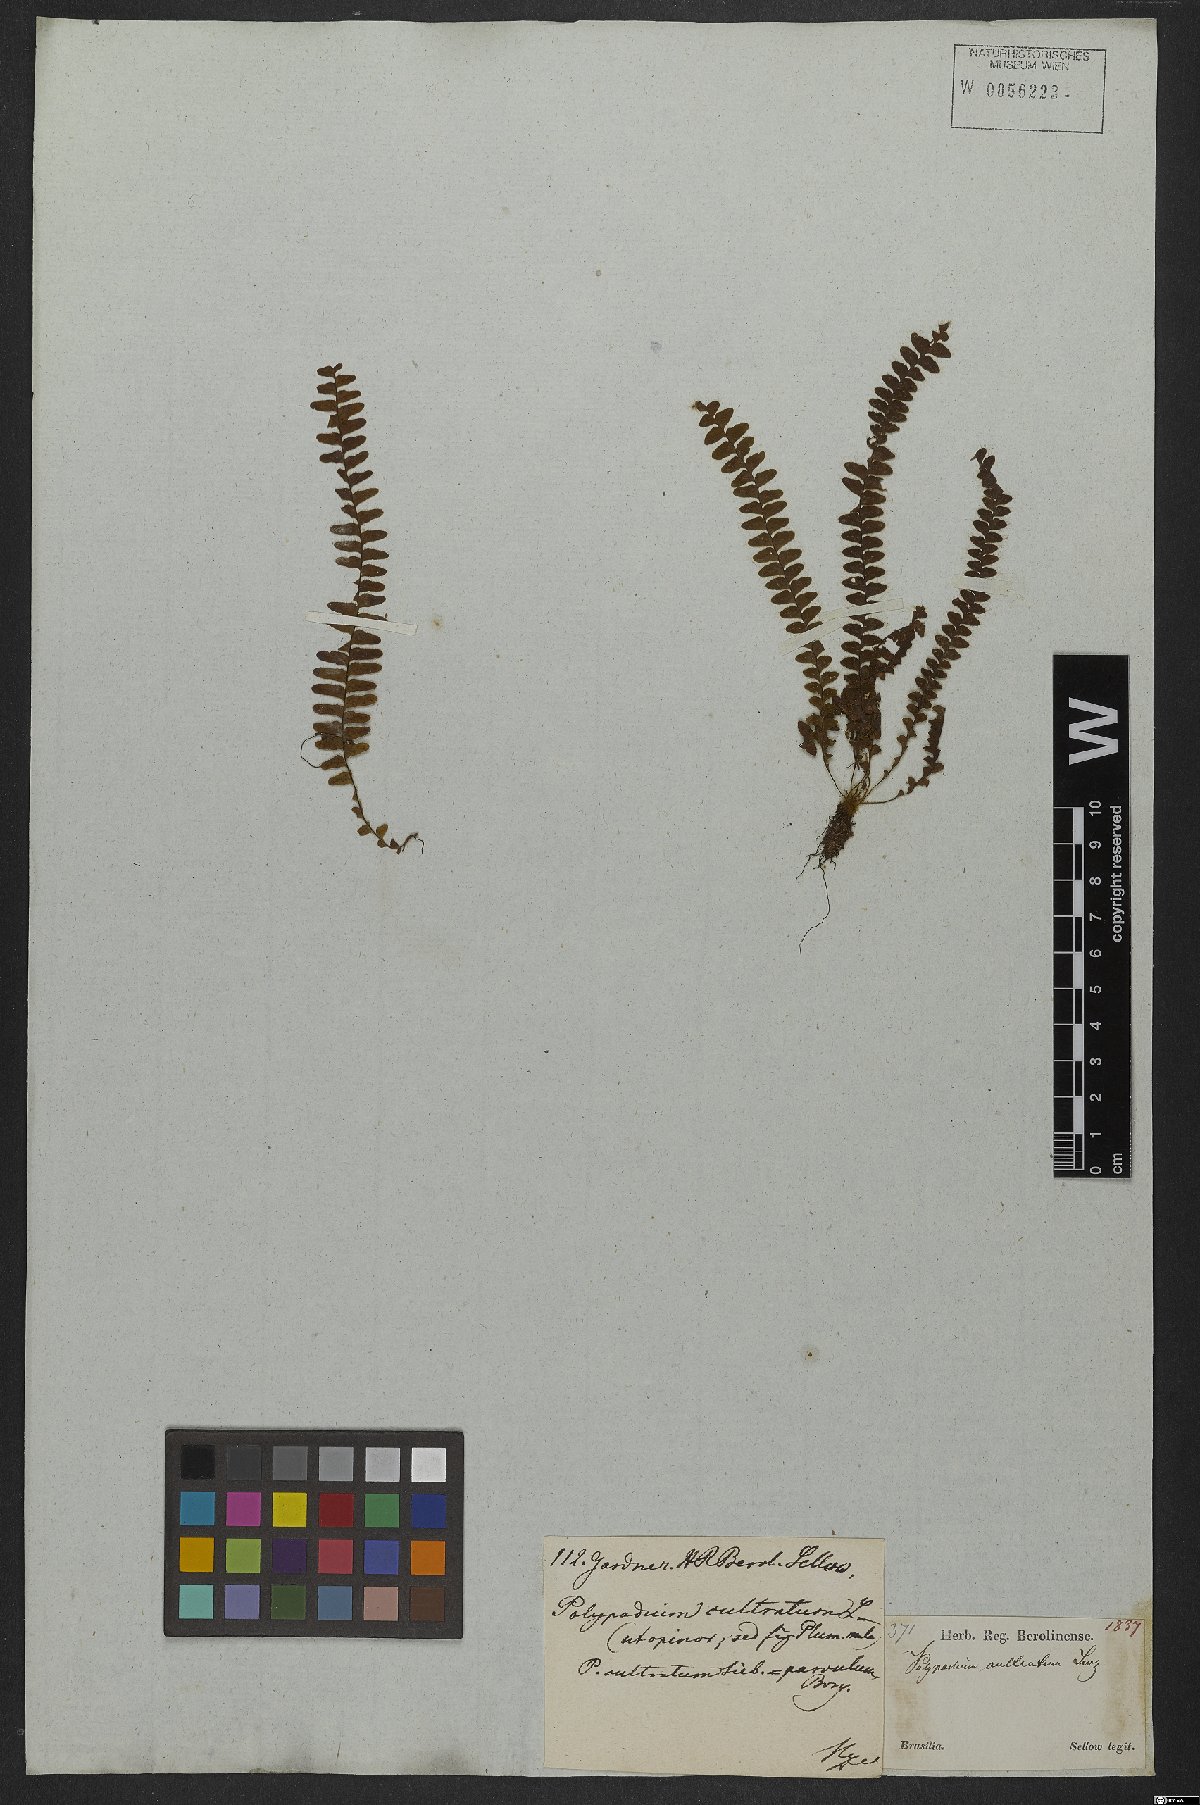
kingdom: Plantae
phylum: Tracheophyta
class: Polypodiopsida
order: Polypodiales
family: Polypodiaceae
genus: Alansmia
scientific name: Alansmia cultrata
